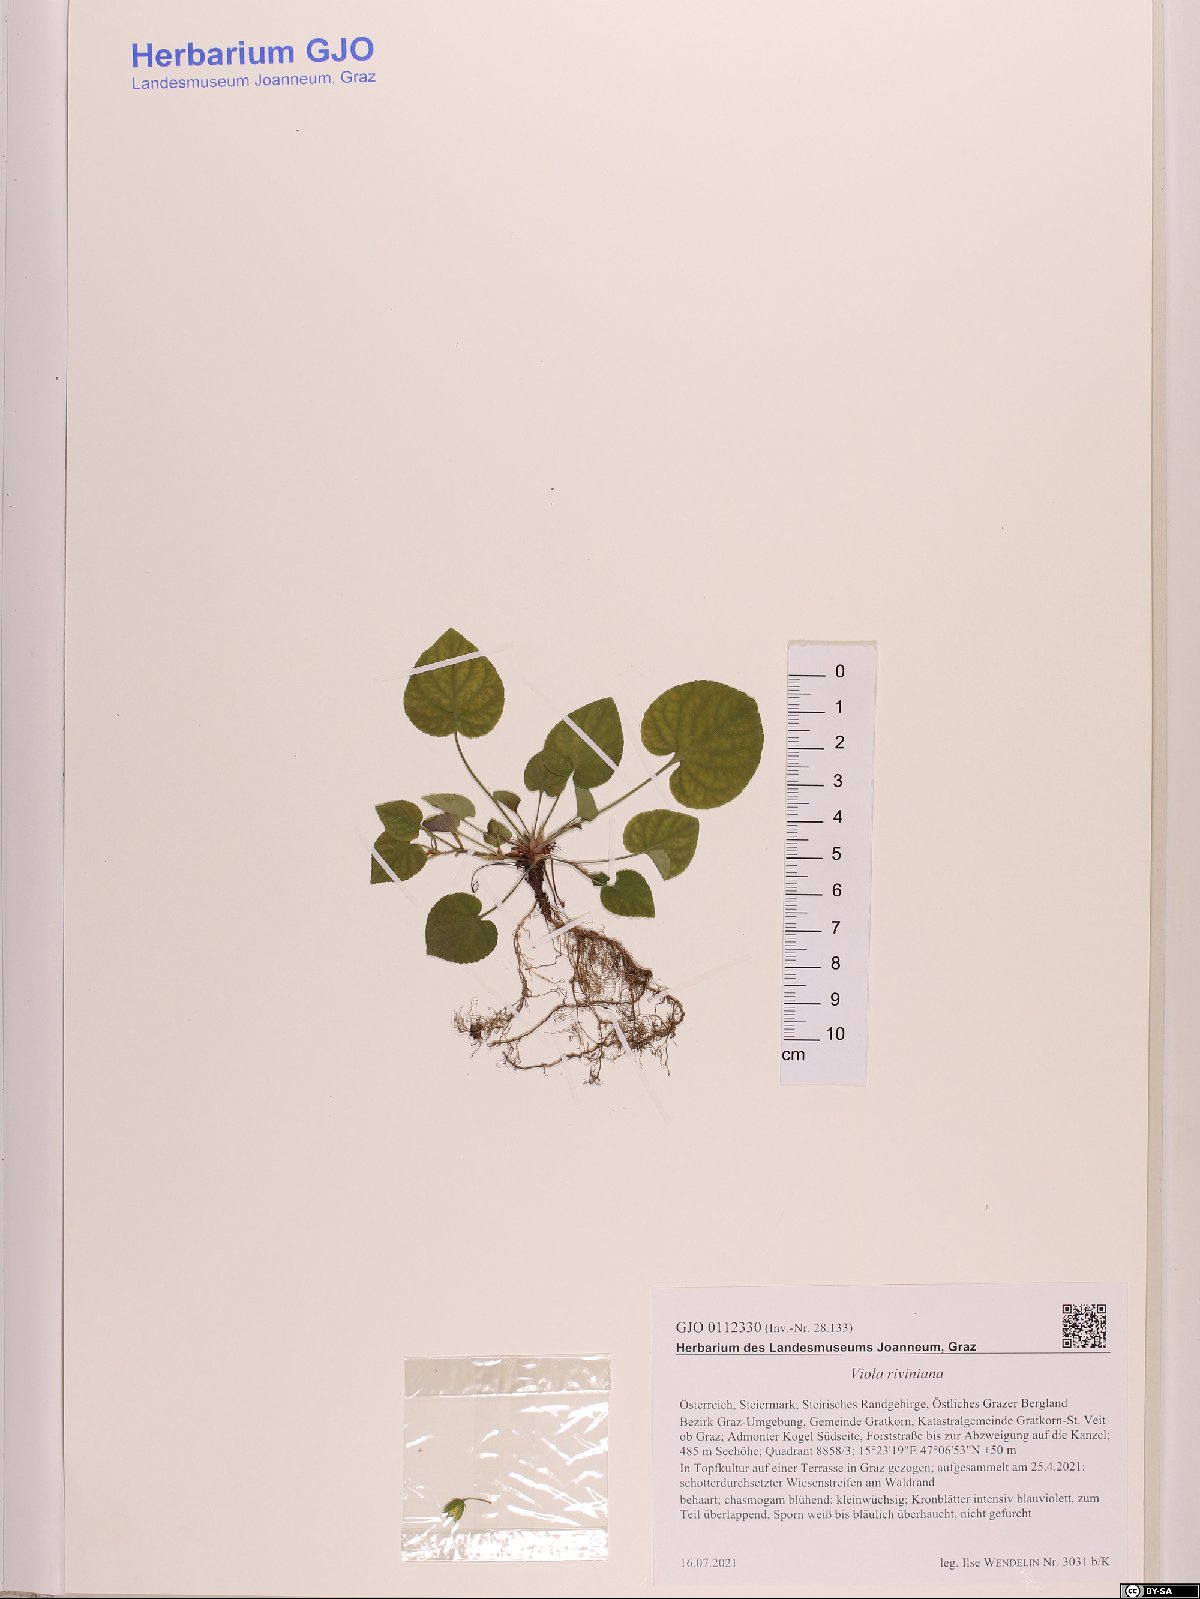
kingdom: Plantae
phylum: Tracheophyta
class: Magnoliopsida
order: Malpighiales
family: Violaceae
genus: Viola
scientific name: Viola riviniana
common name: Common dog-violet
